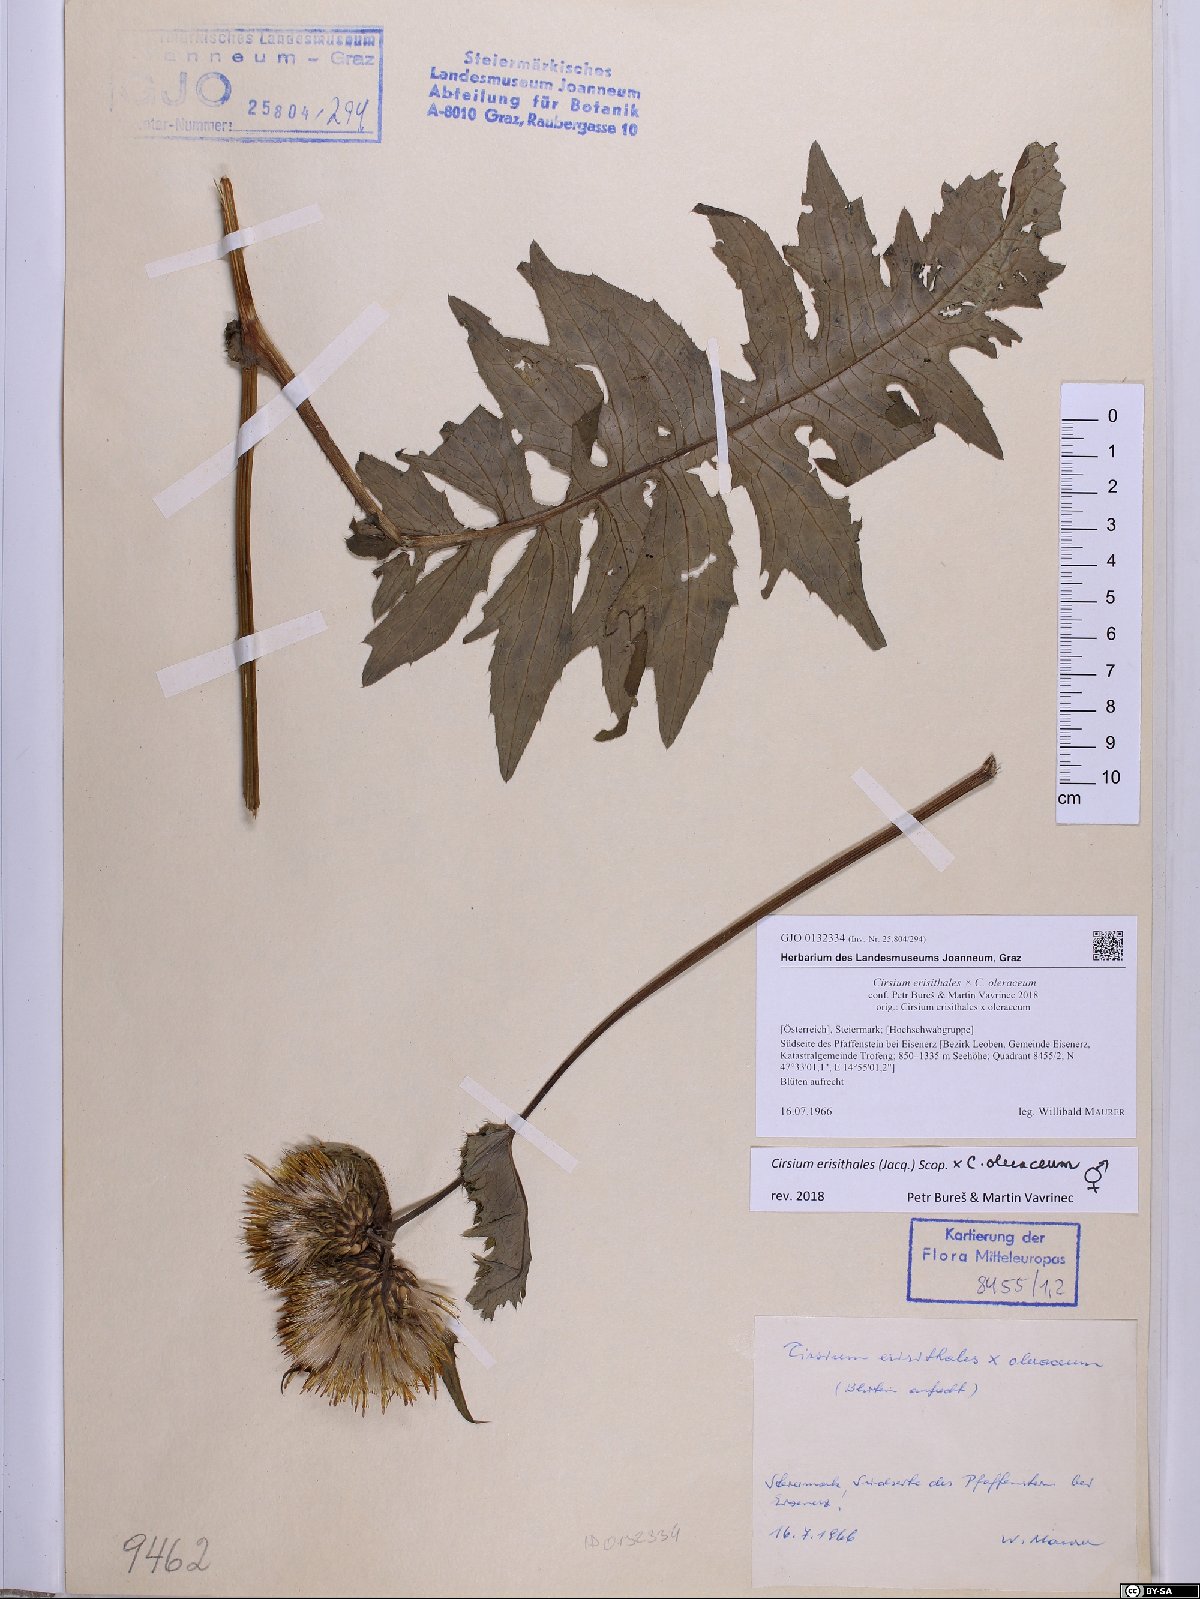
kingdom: Plantae
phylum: Tracheophyta
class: Magnoliopsida
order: Asterales
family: Asteraceae
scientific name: Asteraceae
